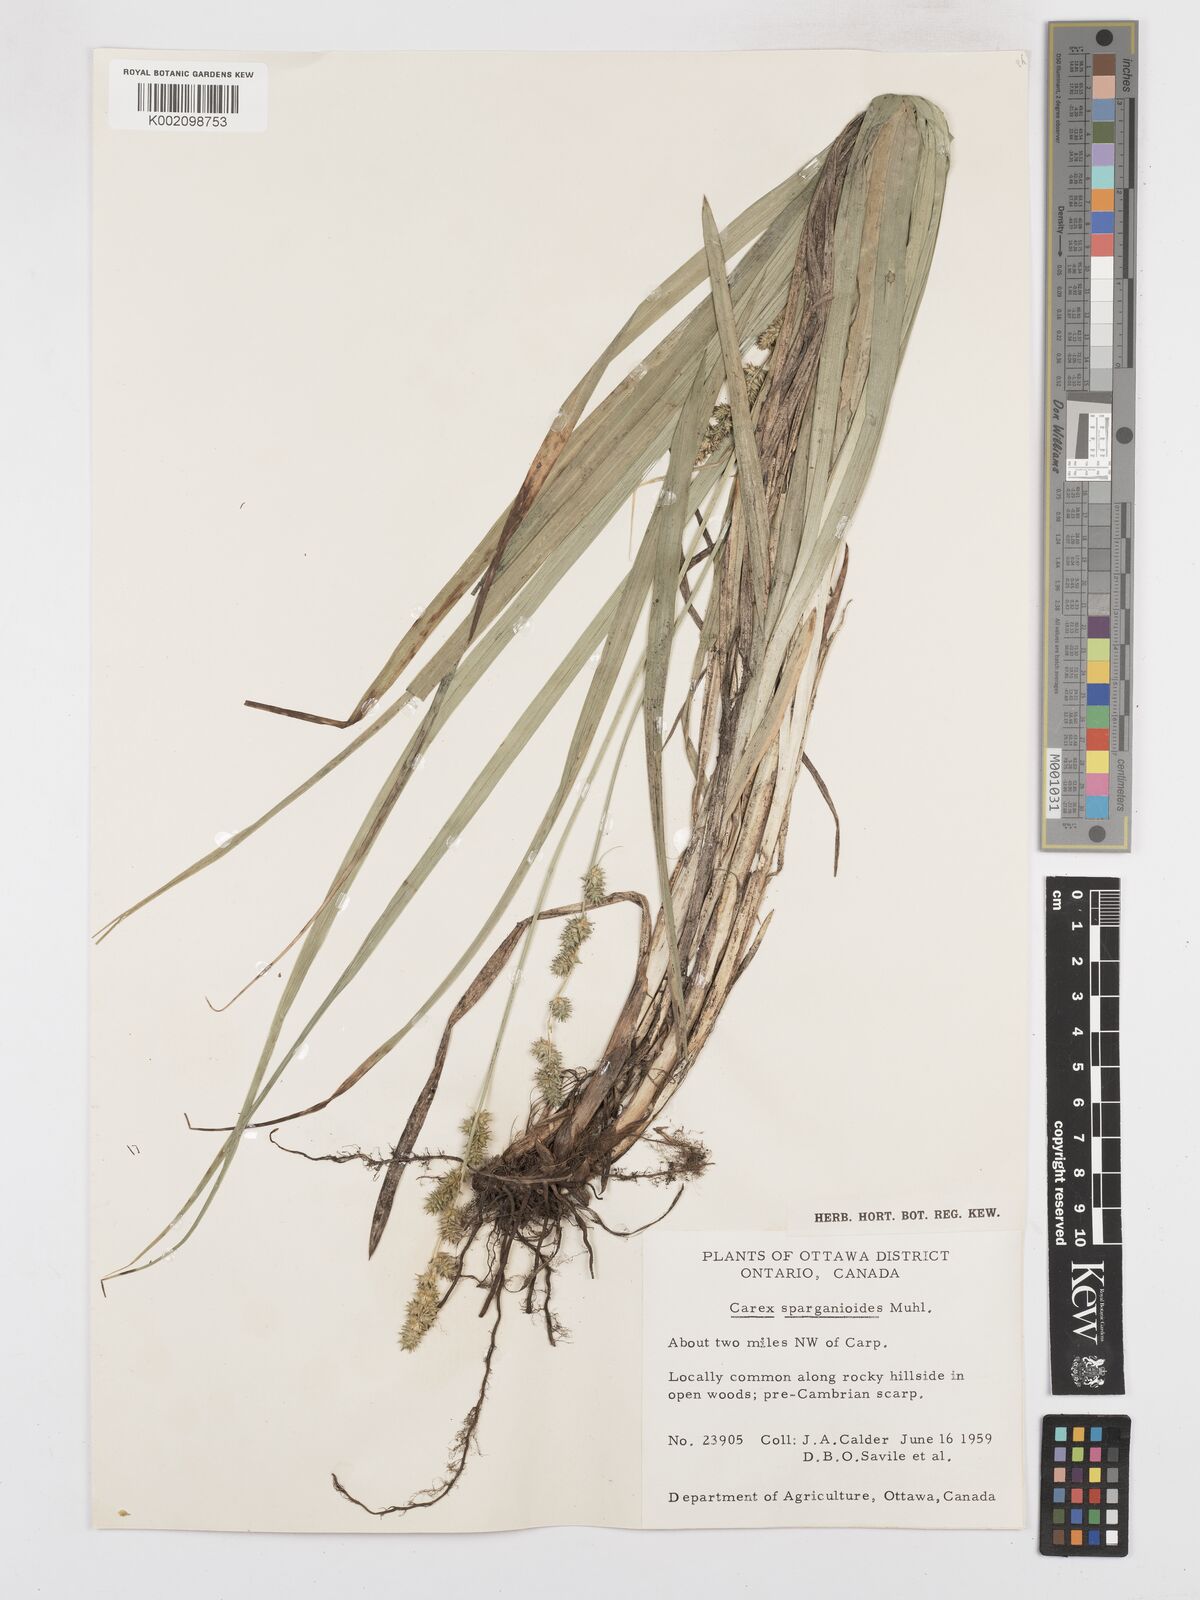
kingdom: Plantae
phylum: Tracheophyta
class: Liliopsida
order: Poales
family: Cyperaceae
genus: Carex
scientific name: Carex sparganioides
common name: Burreed sedge
